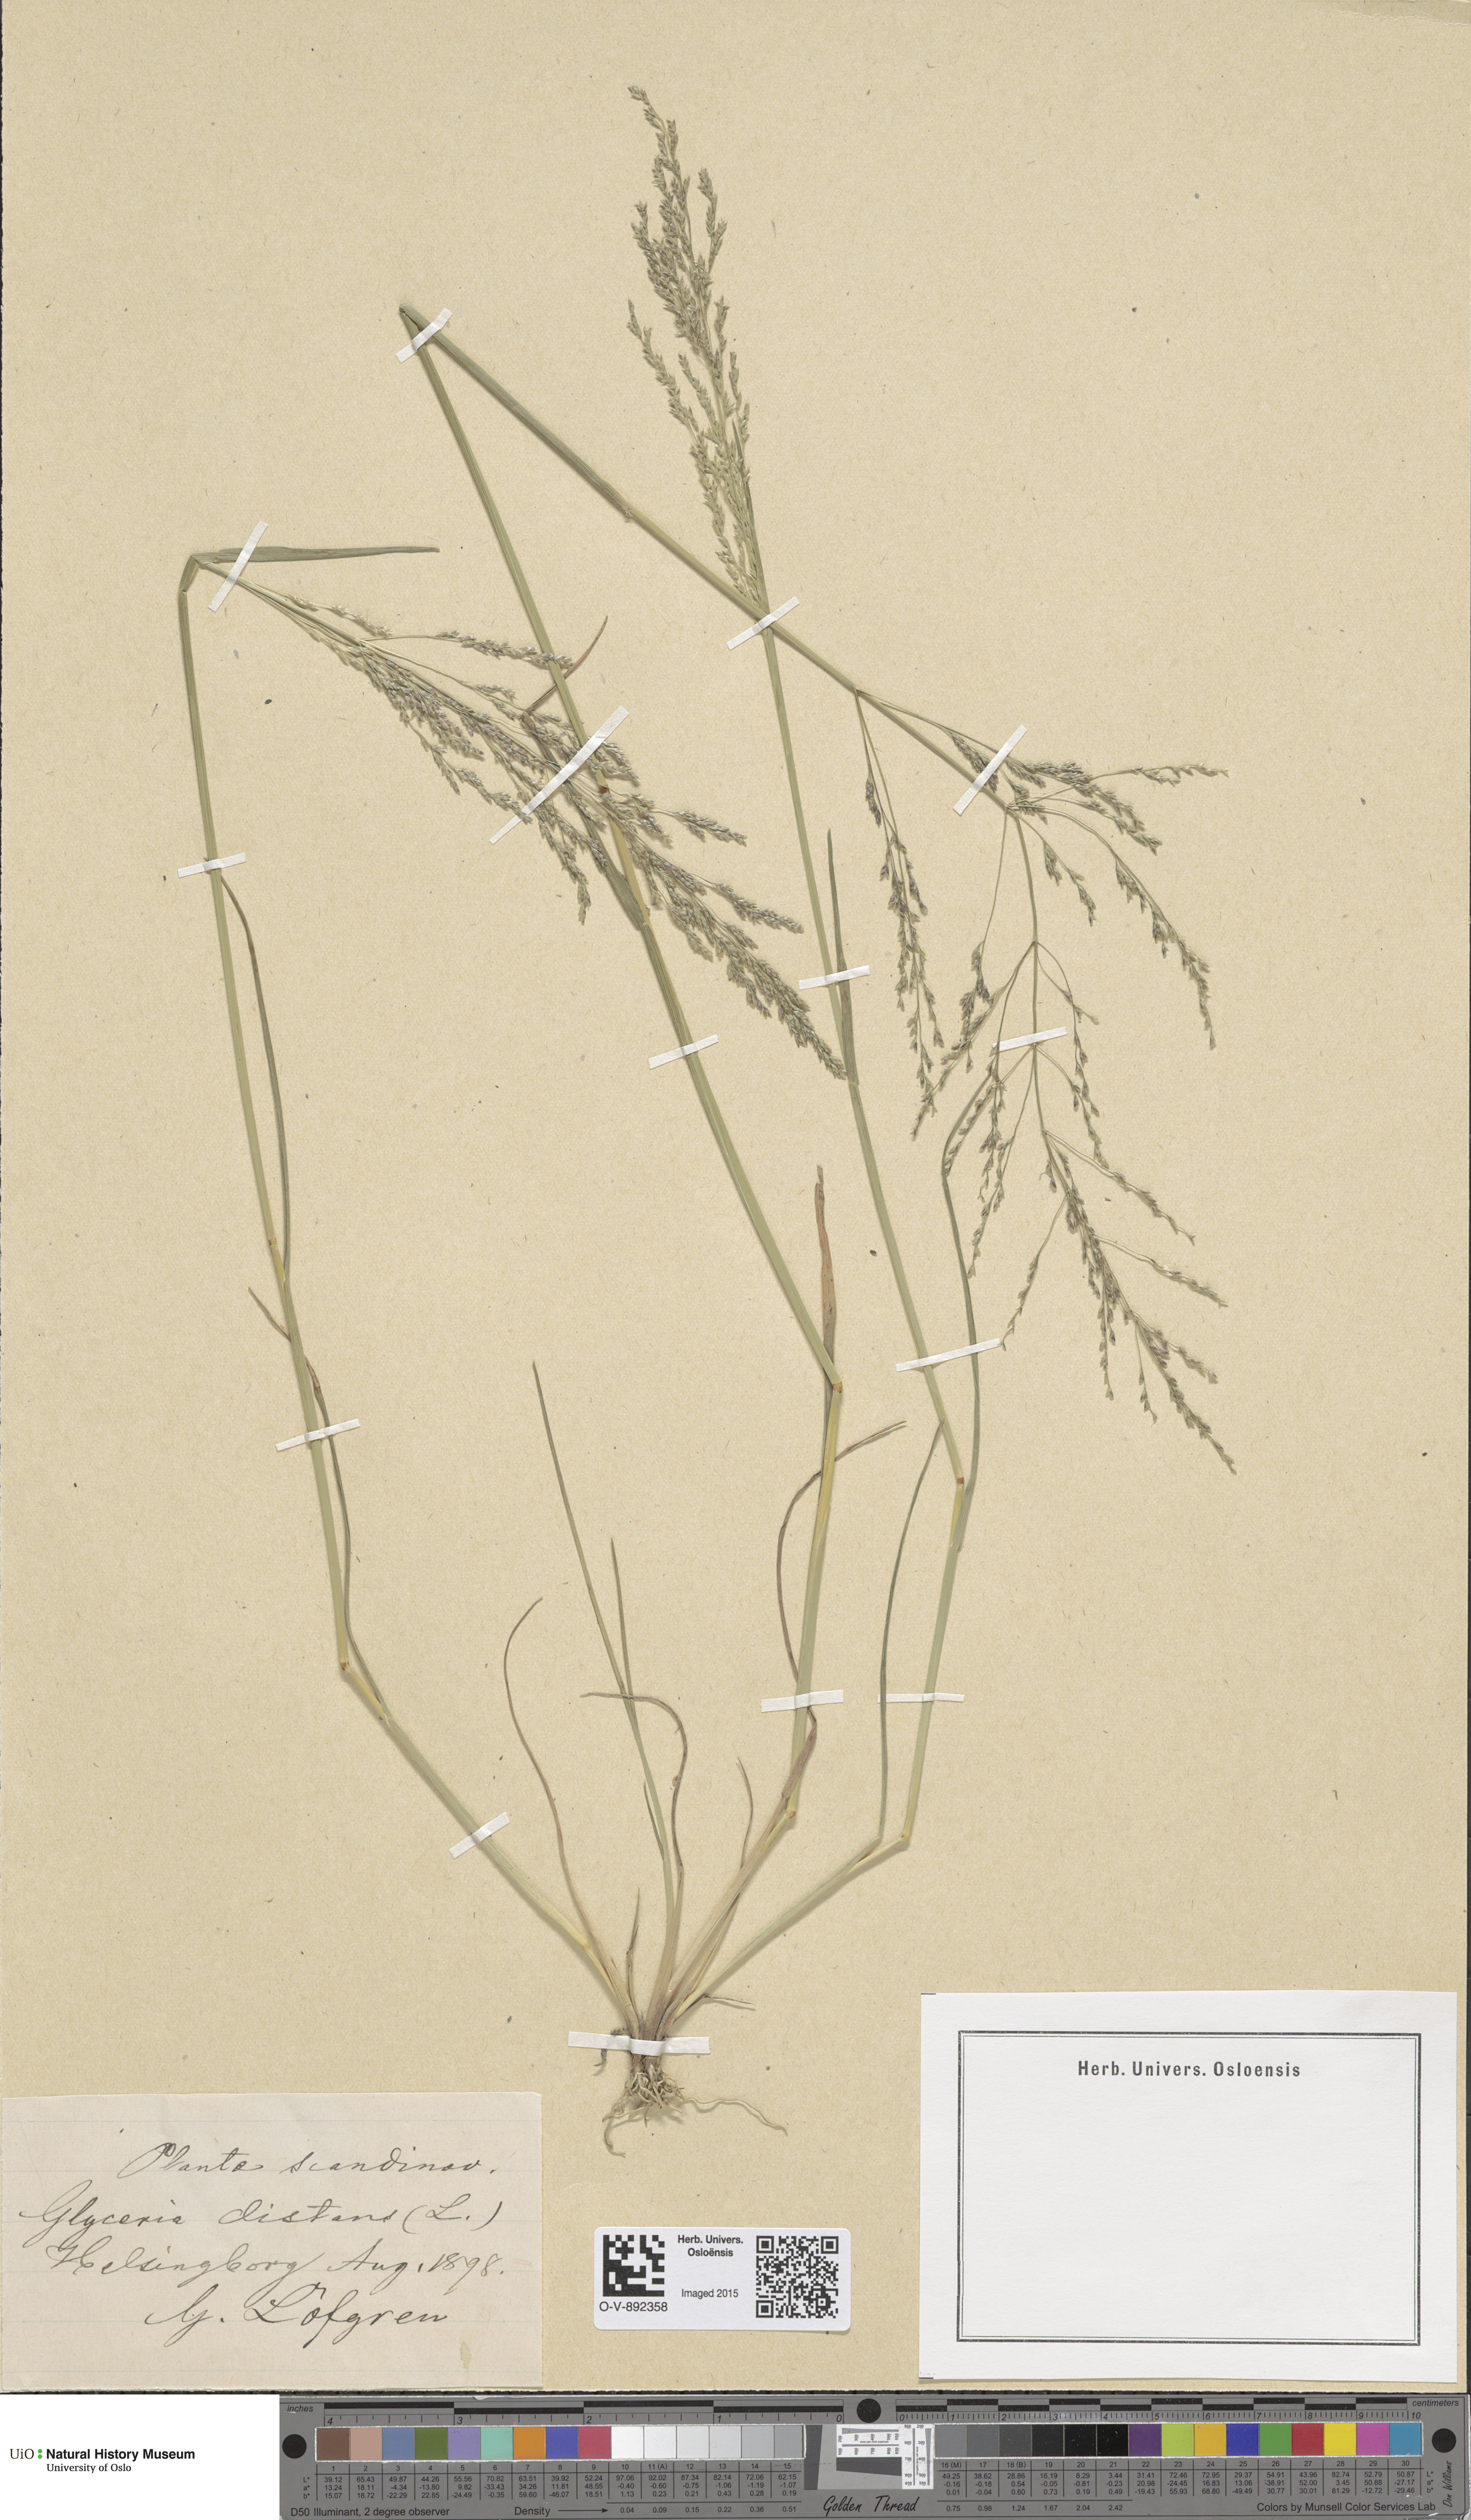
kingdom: Plantae
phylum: Tracheophyta
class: Liliopsida
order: Poales
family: Poaceae
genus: Puccinellia
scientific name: Puccinellia distans
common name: Weeping alkaligrass
